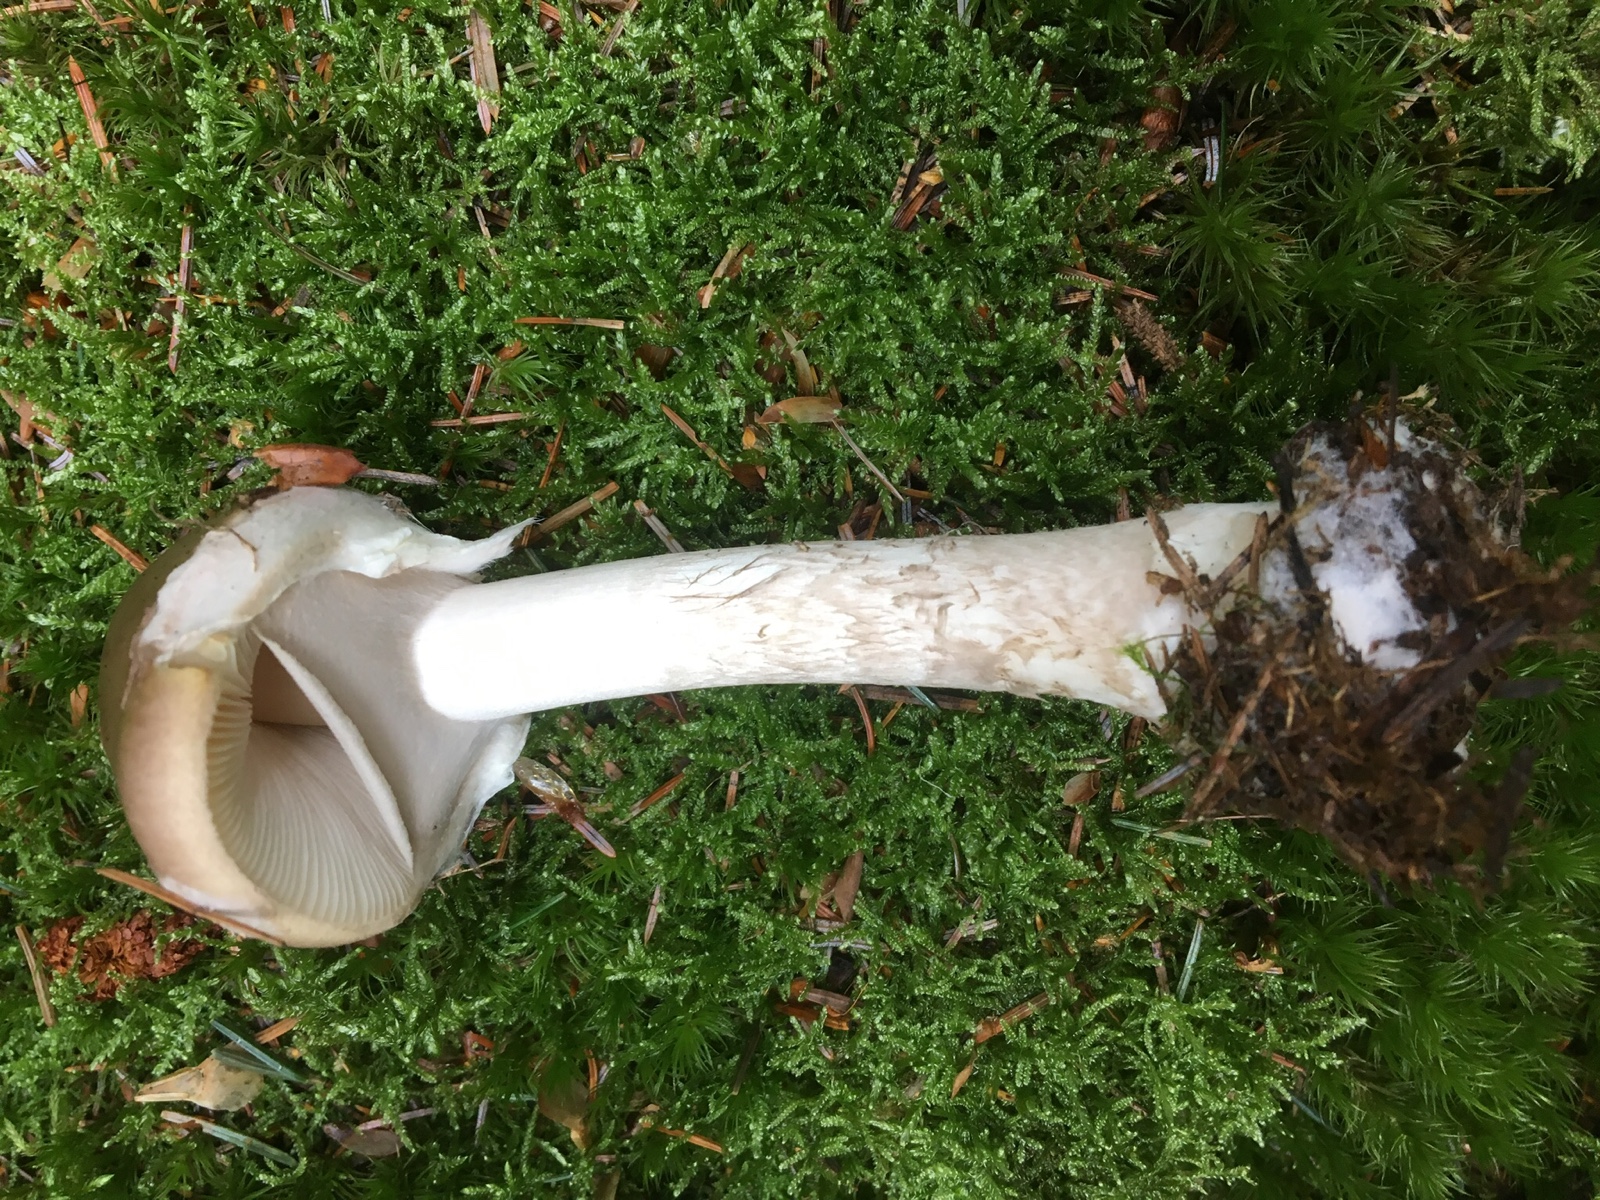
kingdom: Fungi
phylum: Basidiomycota
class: Agaricomycetes
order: Agaricales
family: Amanitaceae
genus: Amanita
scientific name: Amanita porphyria
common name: porfyr-fluesvamp
